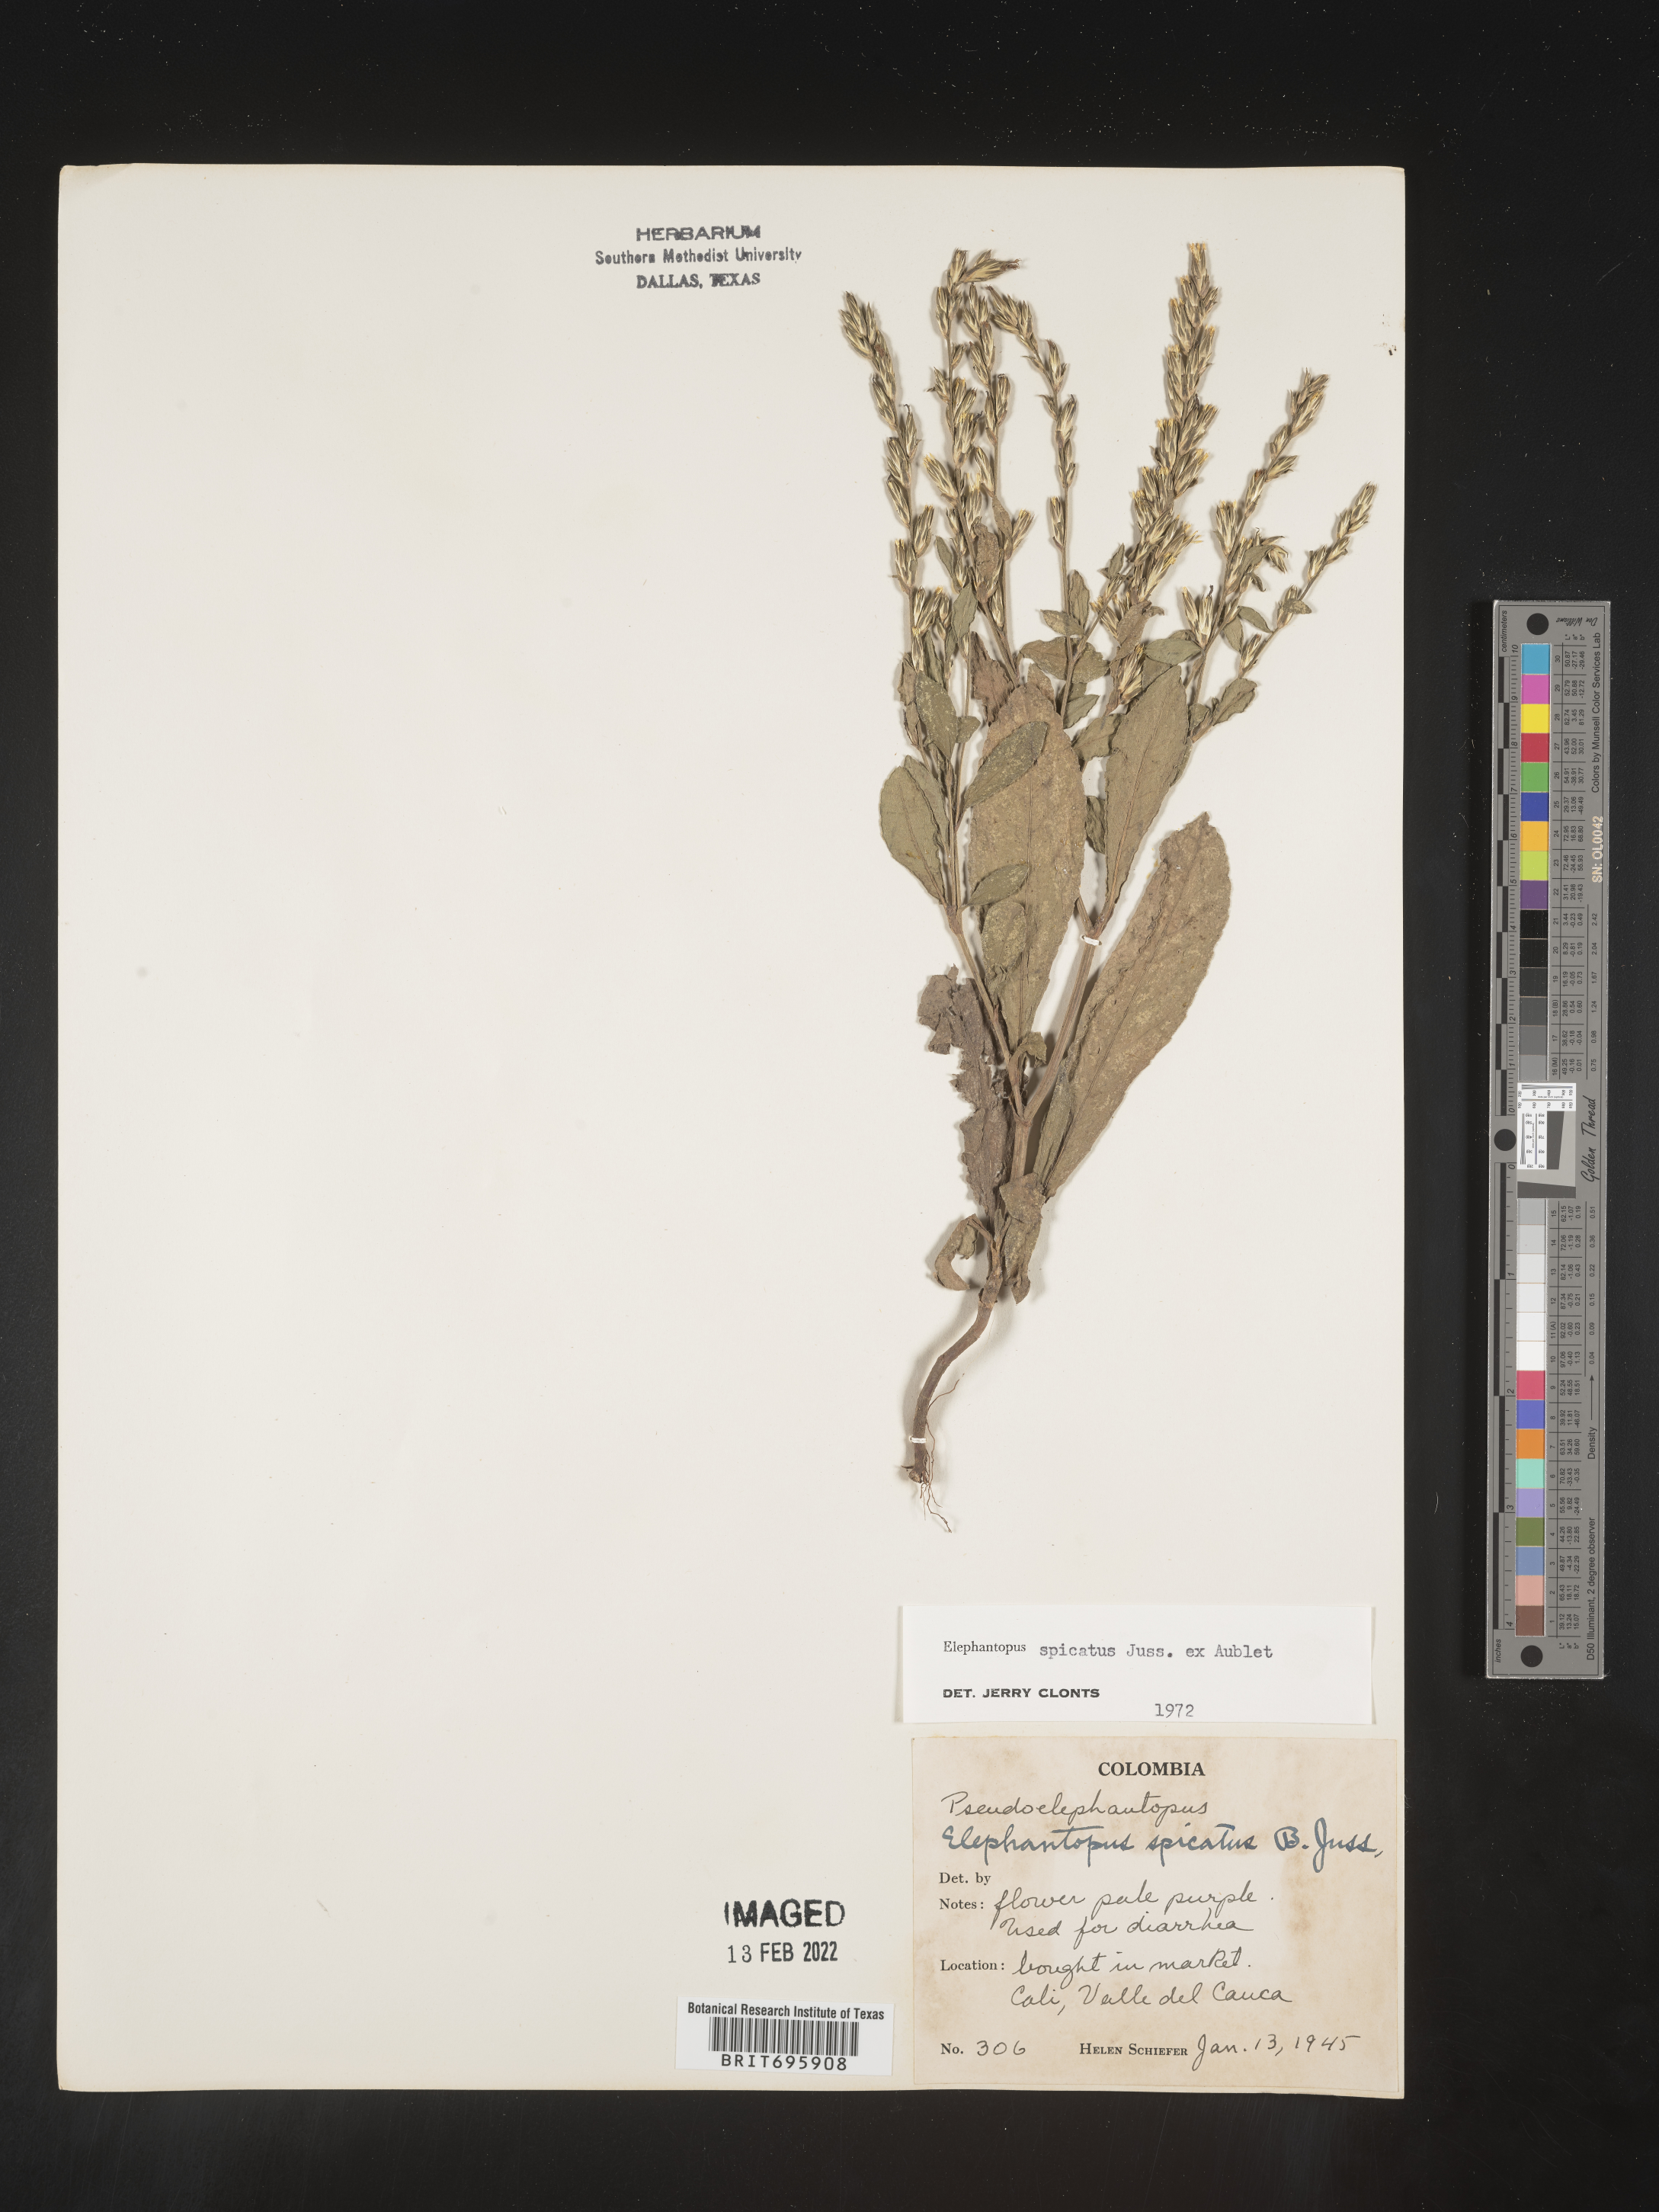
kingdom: Plantae
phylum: Tracheophyta
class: Magnoliopsida
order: Asterales
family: Asteraceae
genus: Elephantopus
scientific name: Elephantopus
